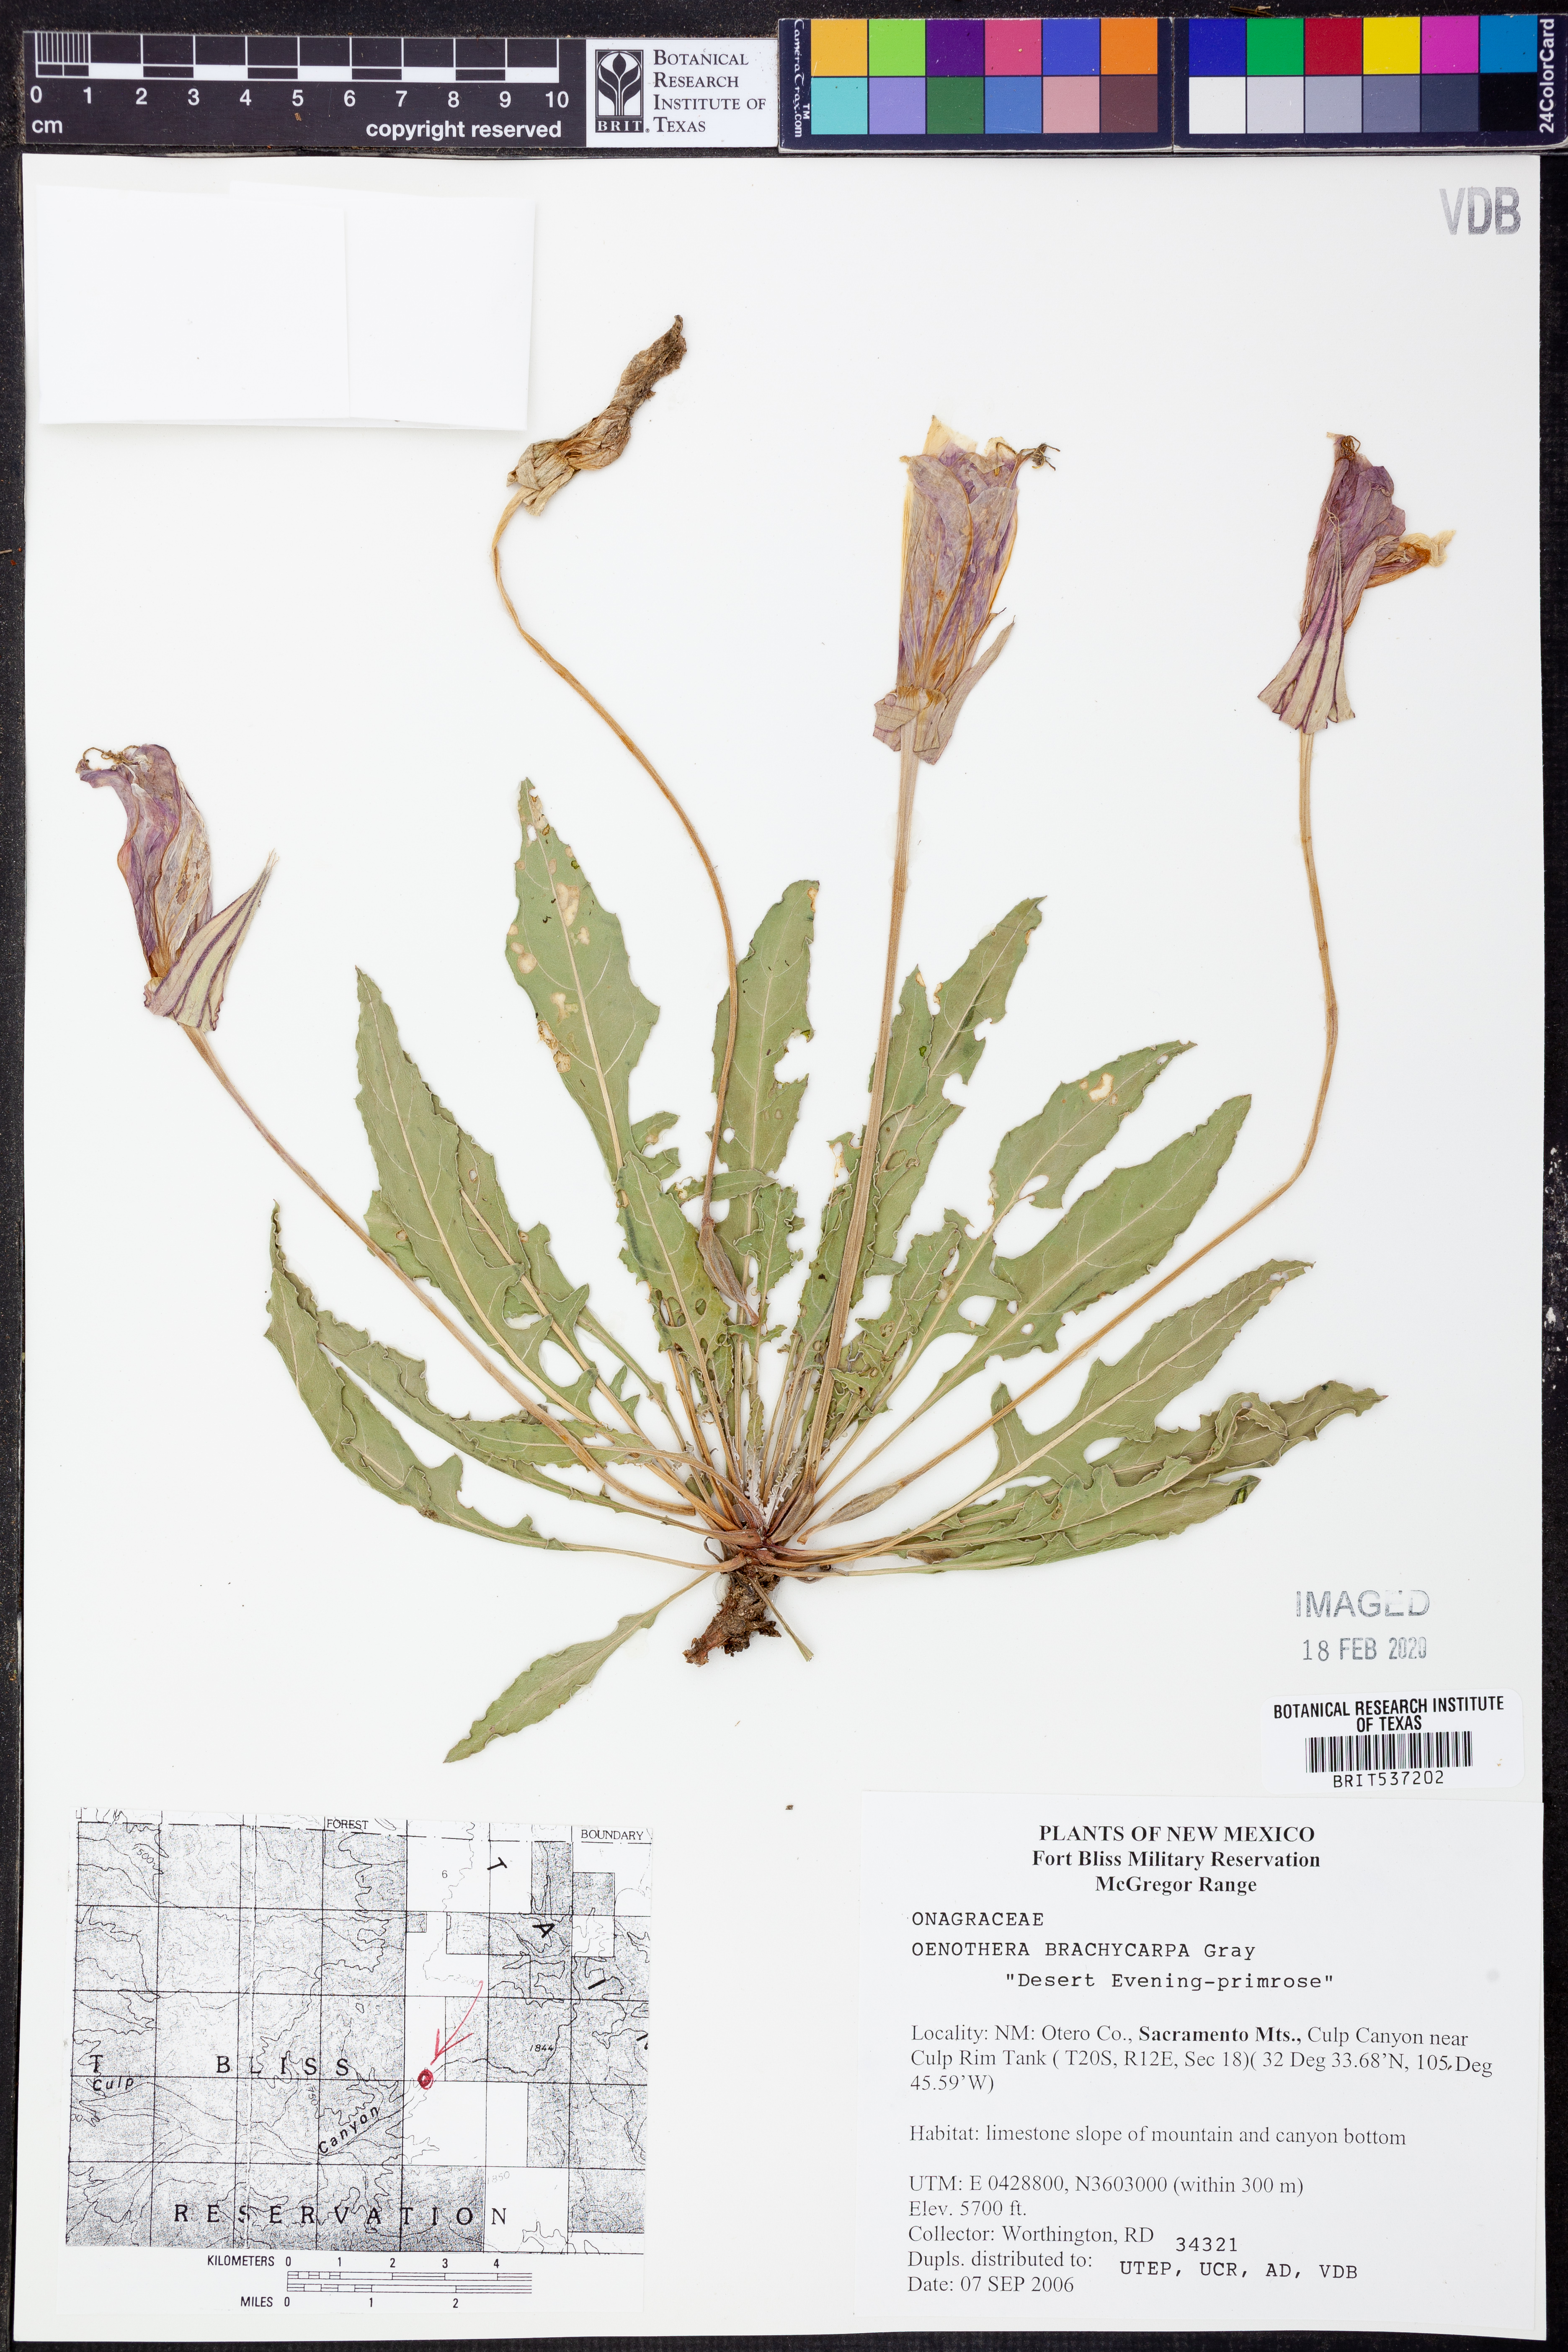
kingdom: Plantae
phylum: Tracheophyta
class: Magnoliopsida
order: Myrtales
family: Onagraceae
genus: Oenothera
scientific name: Oenothera brachycarpa
